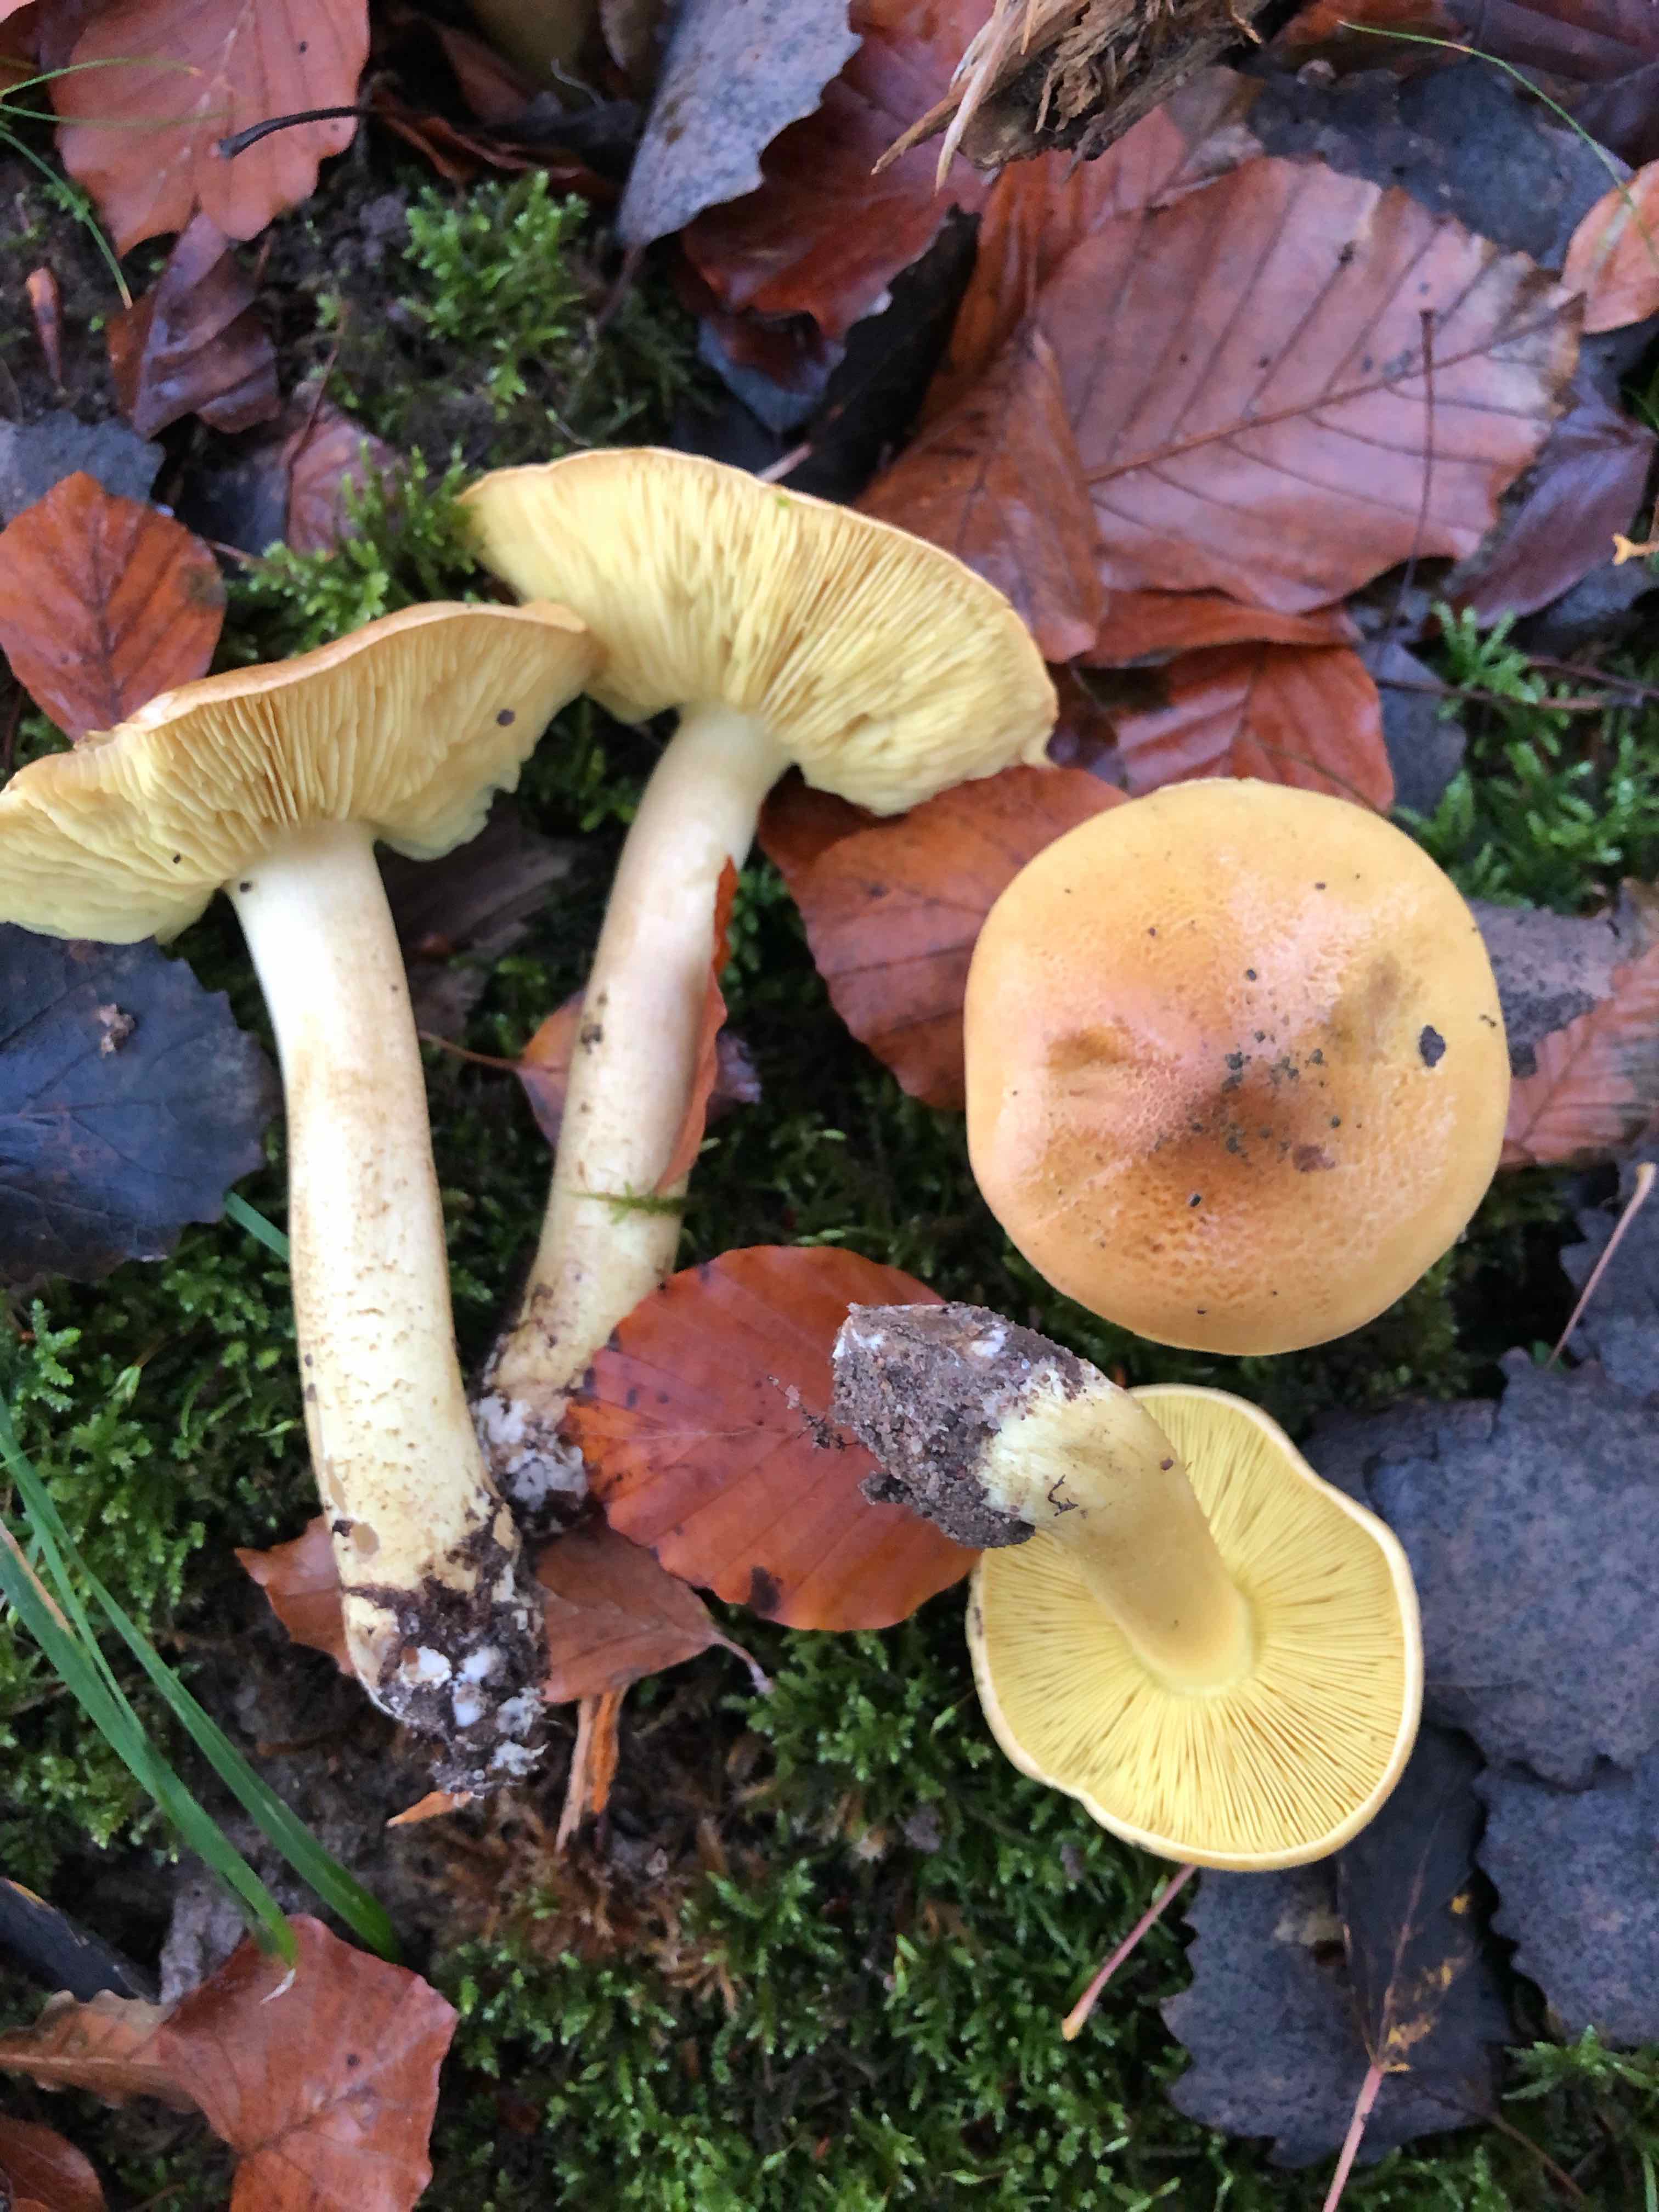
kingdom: Fungi
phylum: Basidiomycota
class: Agaricomycetes
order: Agaricales
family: Tricholomataceae
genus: Tricholoma
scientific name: Tricholoma frondosae
